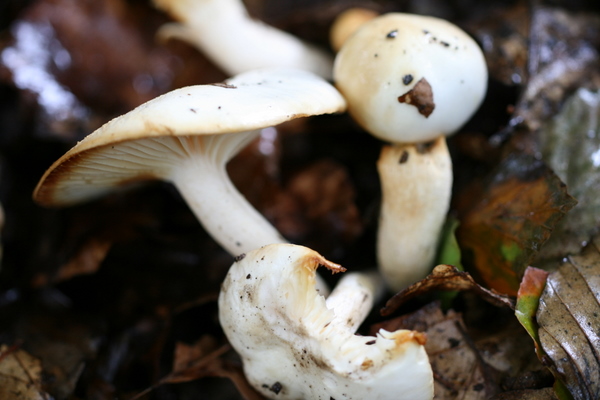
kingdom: Fungi
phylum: Basidiomycota
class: Agaricomycetes
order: Agaricales
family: Hygrophoraceae
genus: Hygrophorus
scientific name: Hygrophorus discoxanthus
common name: ildelugtende sneglehat
